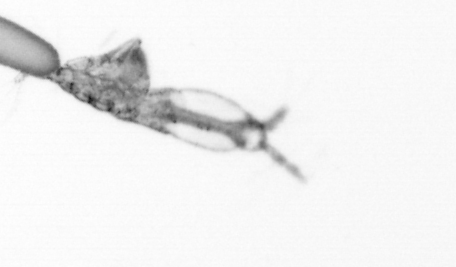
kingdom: Animalia
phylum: Arthropoda
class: Copepoda
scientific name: Copepoda
